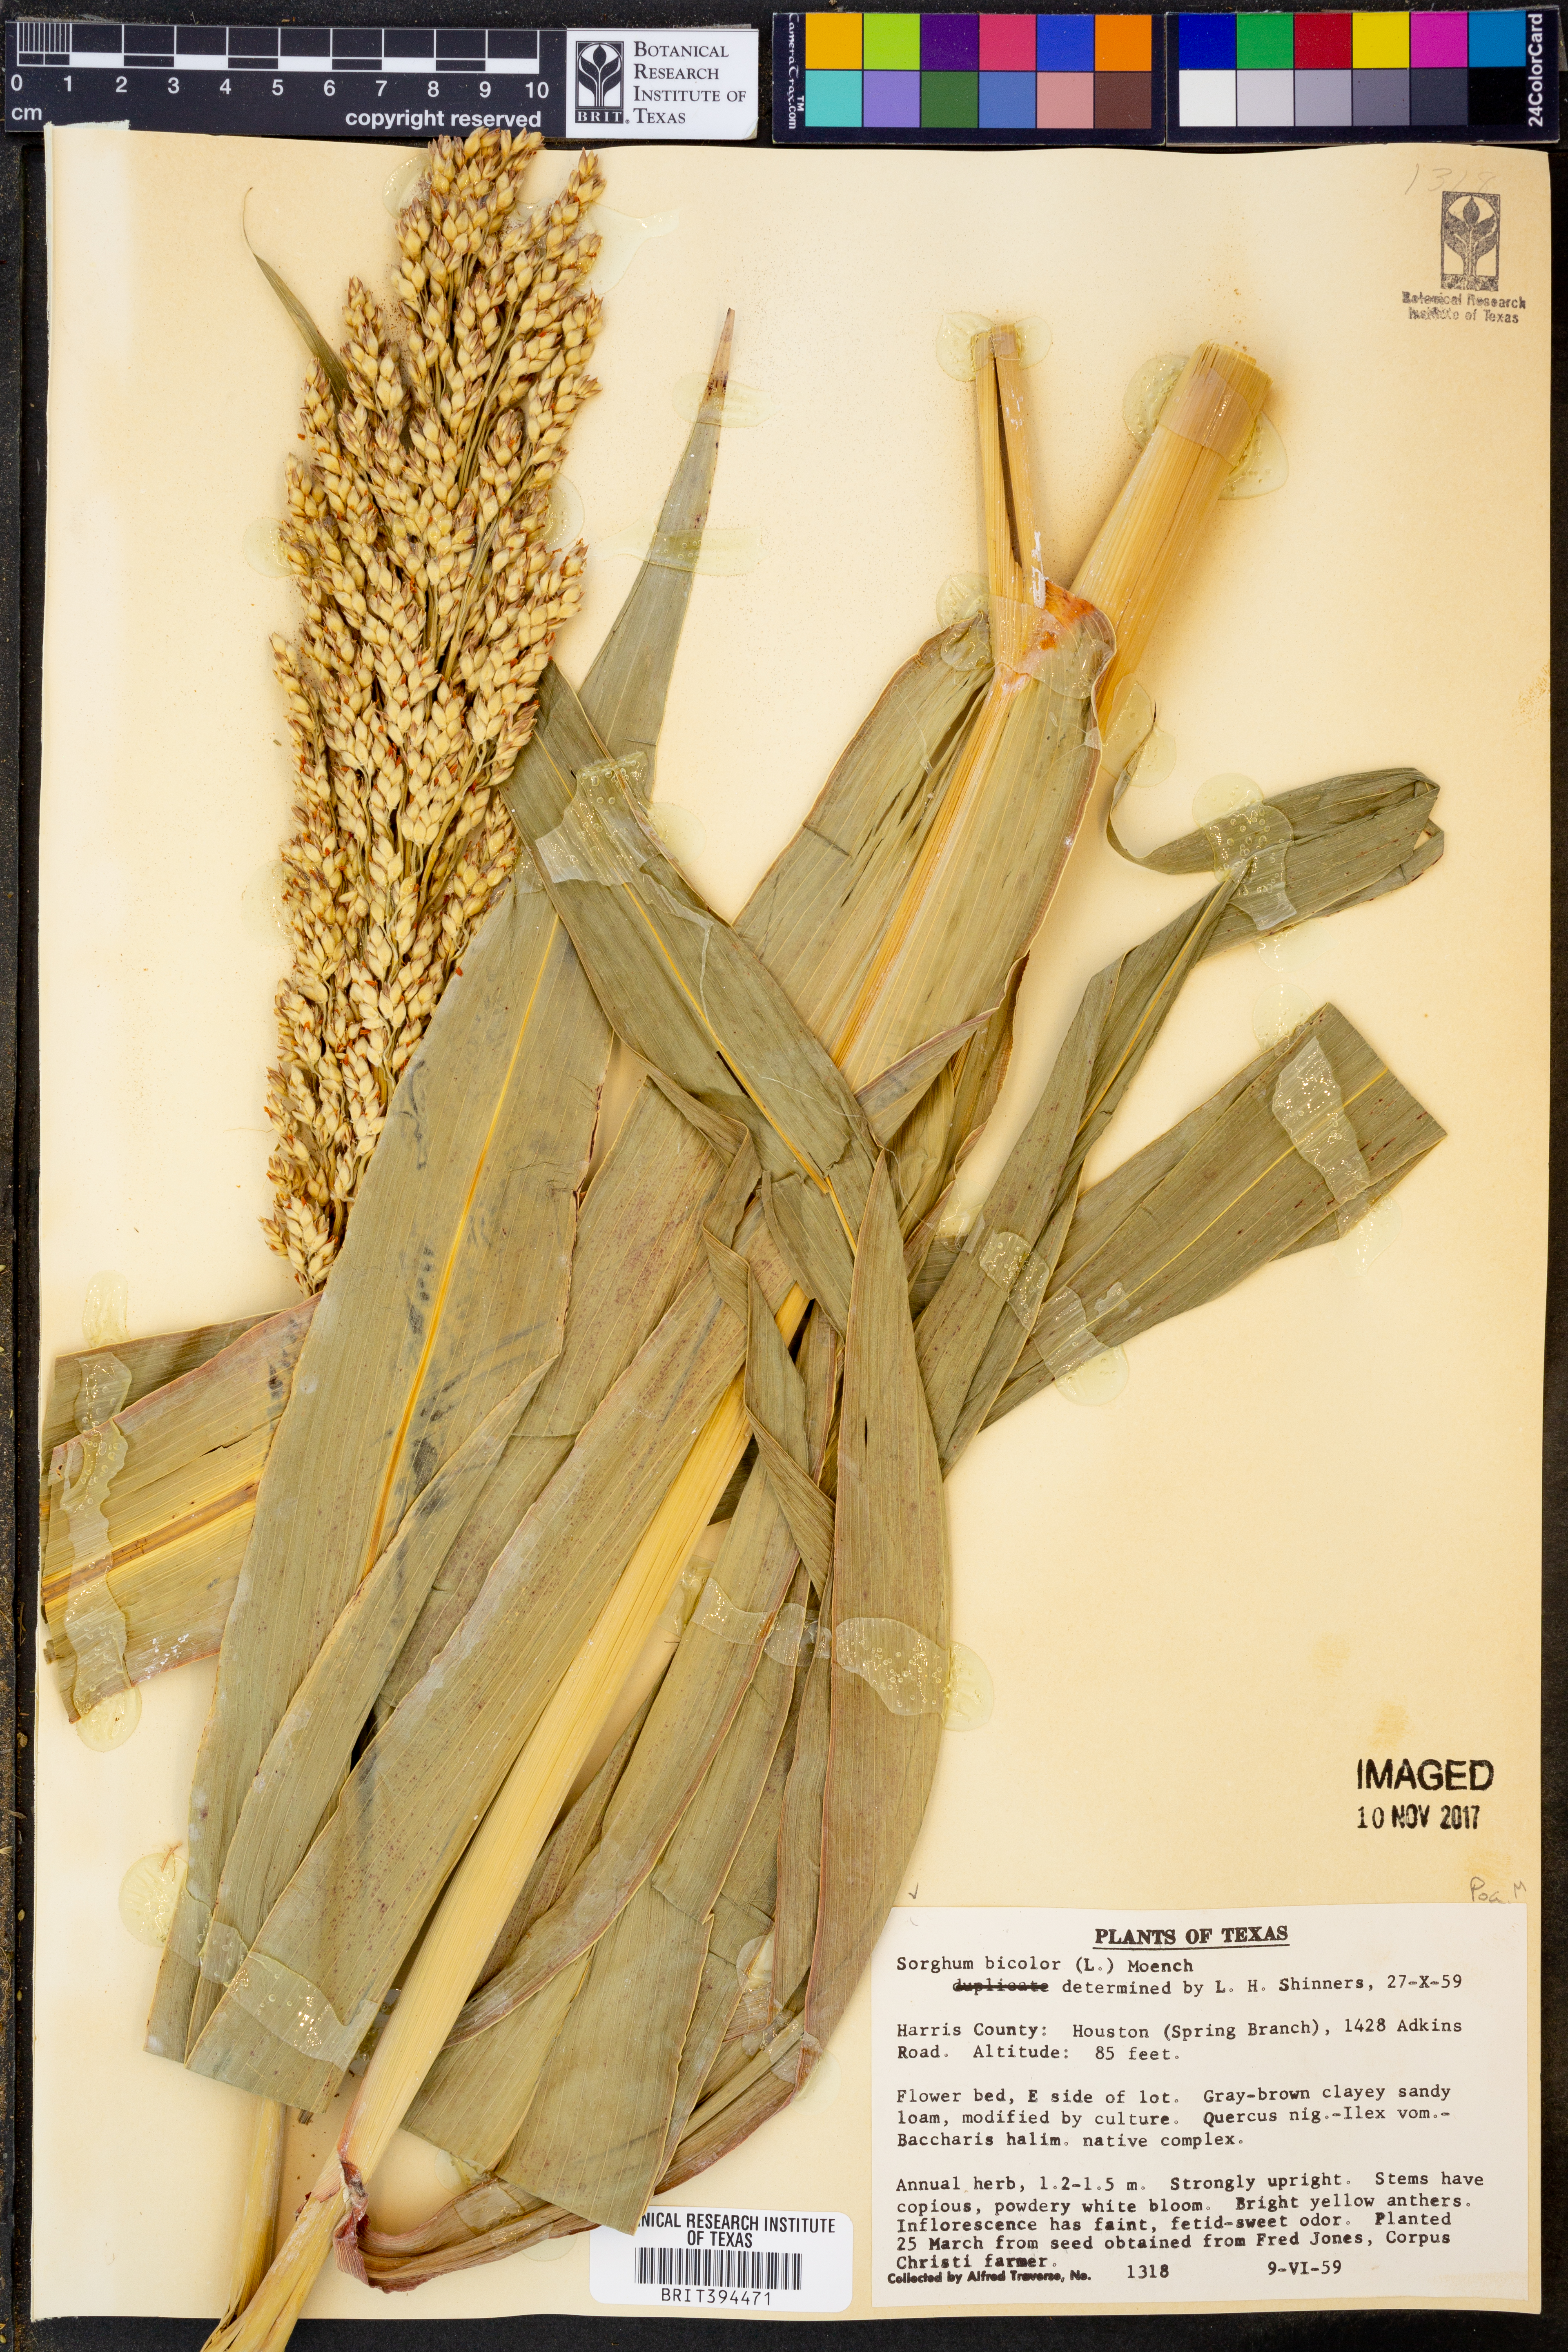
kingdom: Plantae
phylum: Tracheophyta
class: Liliopsida
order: Poales
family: Poaceae
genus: Sorghum
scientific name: Sorghum bicolor
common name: Sorghum
